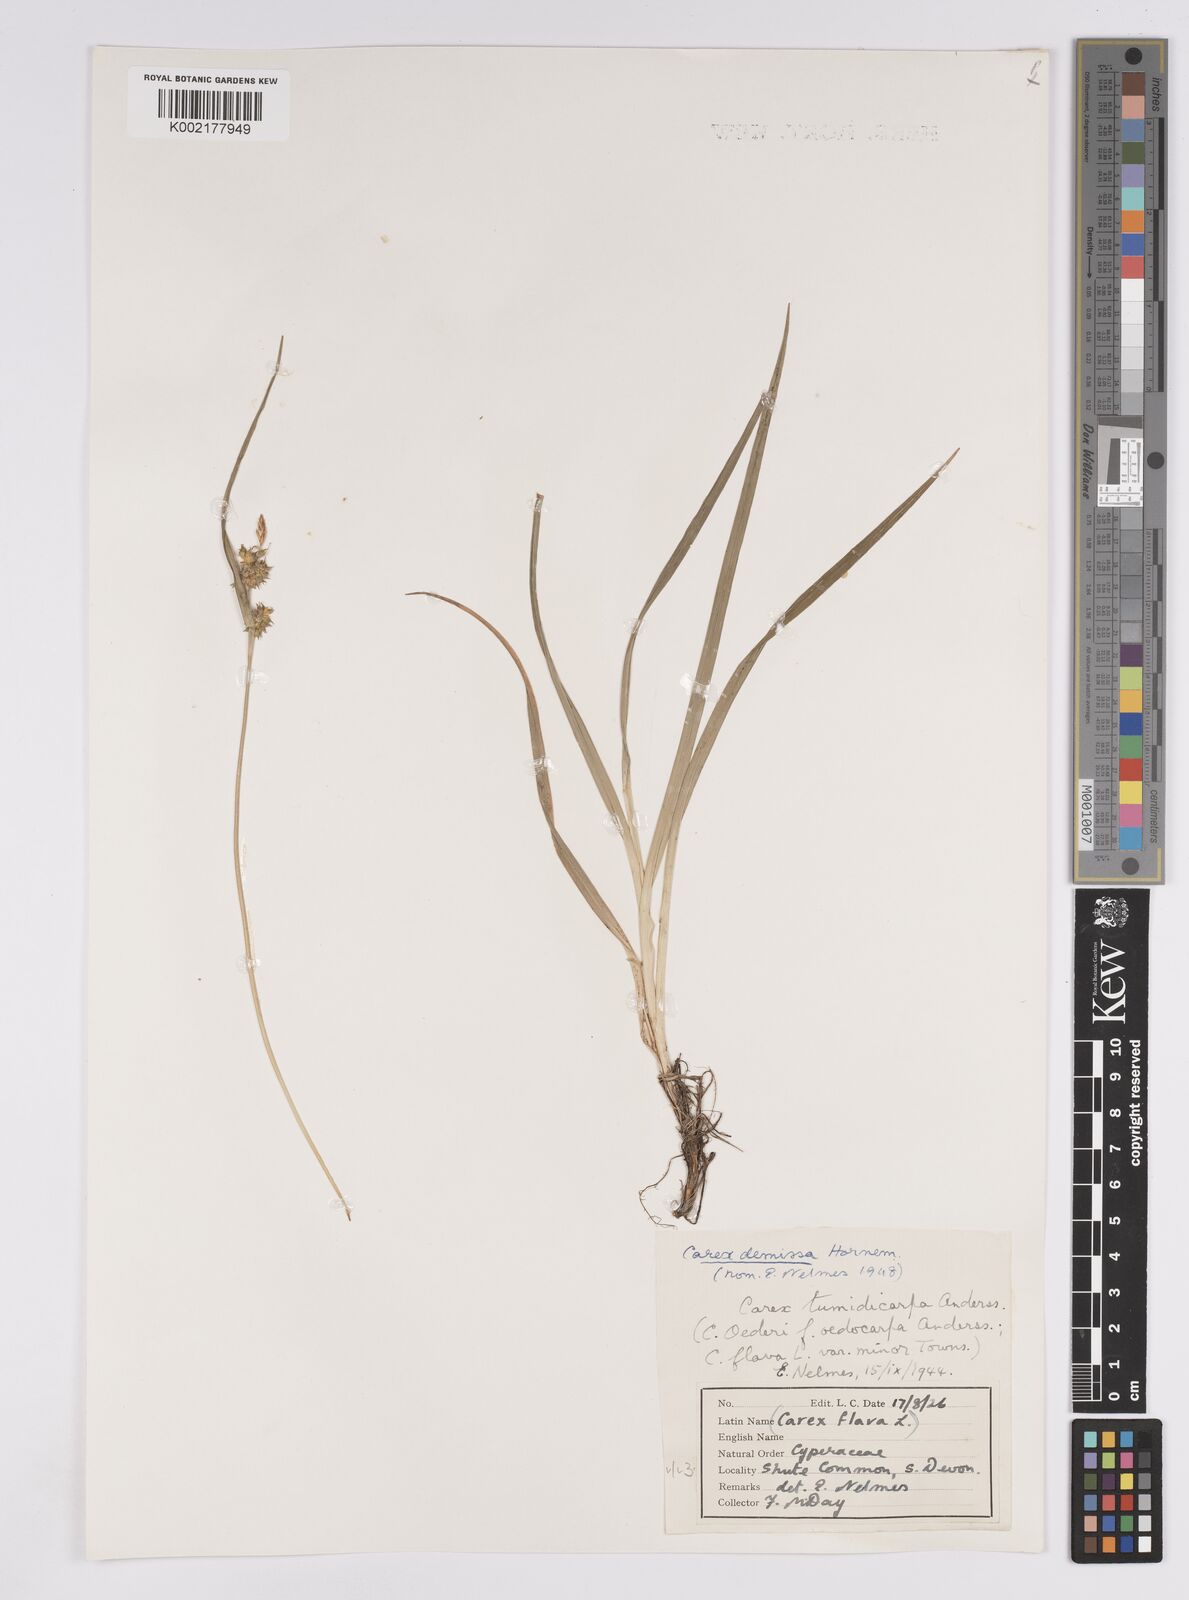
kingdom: Plantae
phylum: Tracheophyta
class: Liliopsida
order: Poales
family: Cyperaceae
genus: Carex
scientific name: Carex demissa
